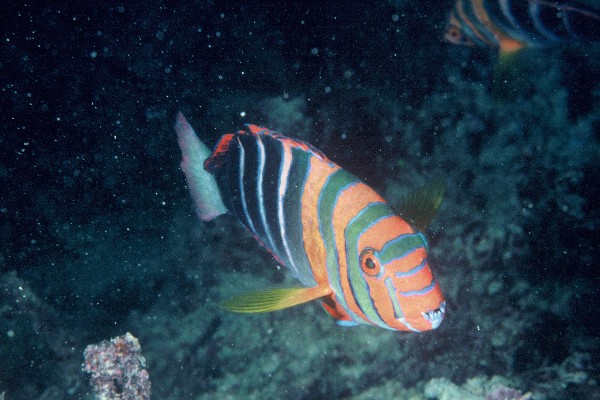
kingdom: Animalia
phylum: Chordata
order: Perciformes
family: Labridae
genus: Choerodon
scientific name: Choerodon fasciatus
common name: Harlequin tuskfish
